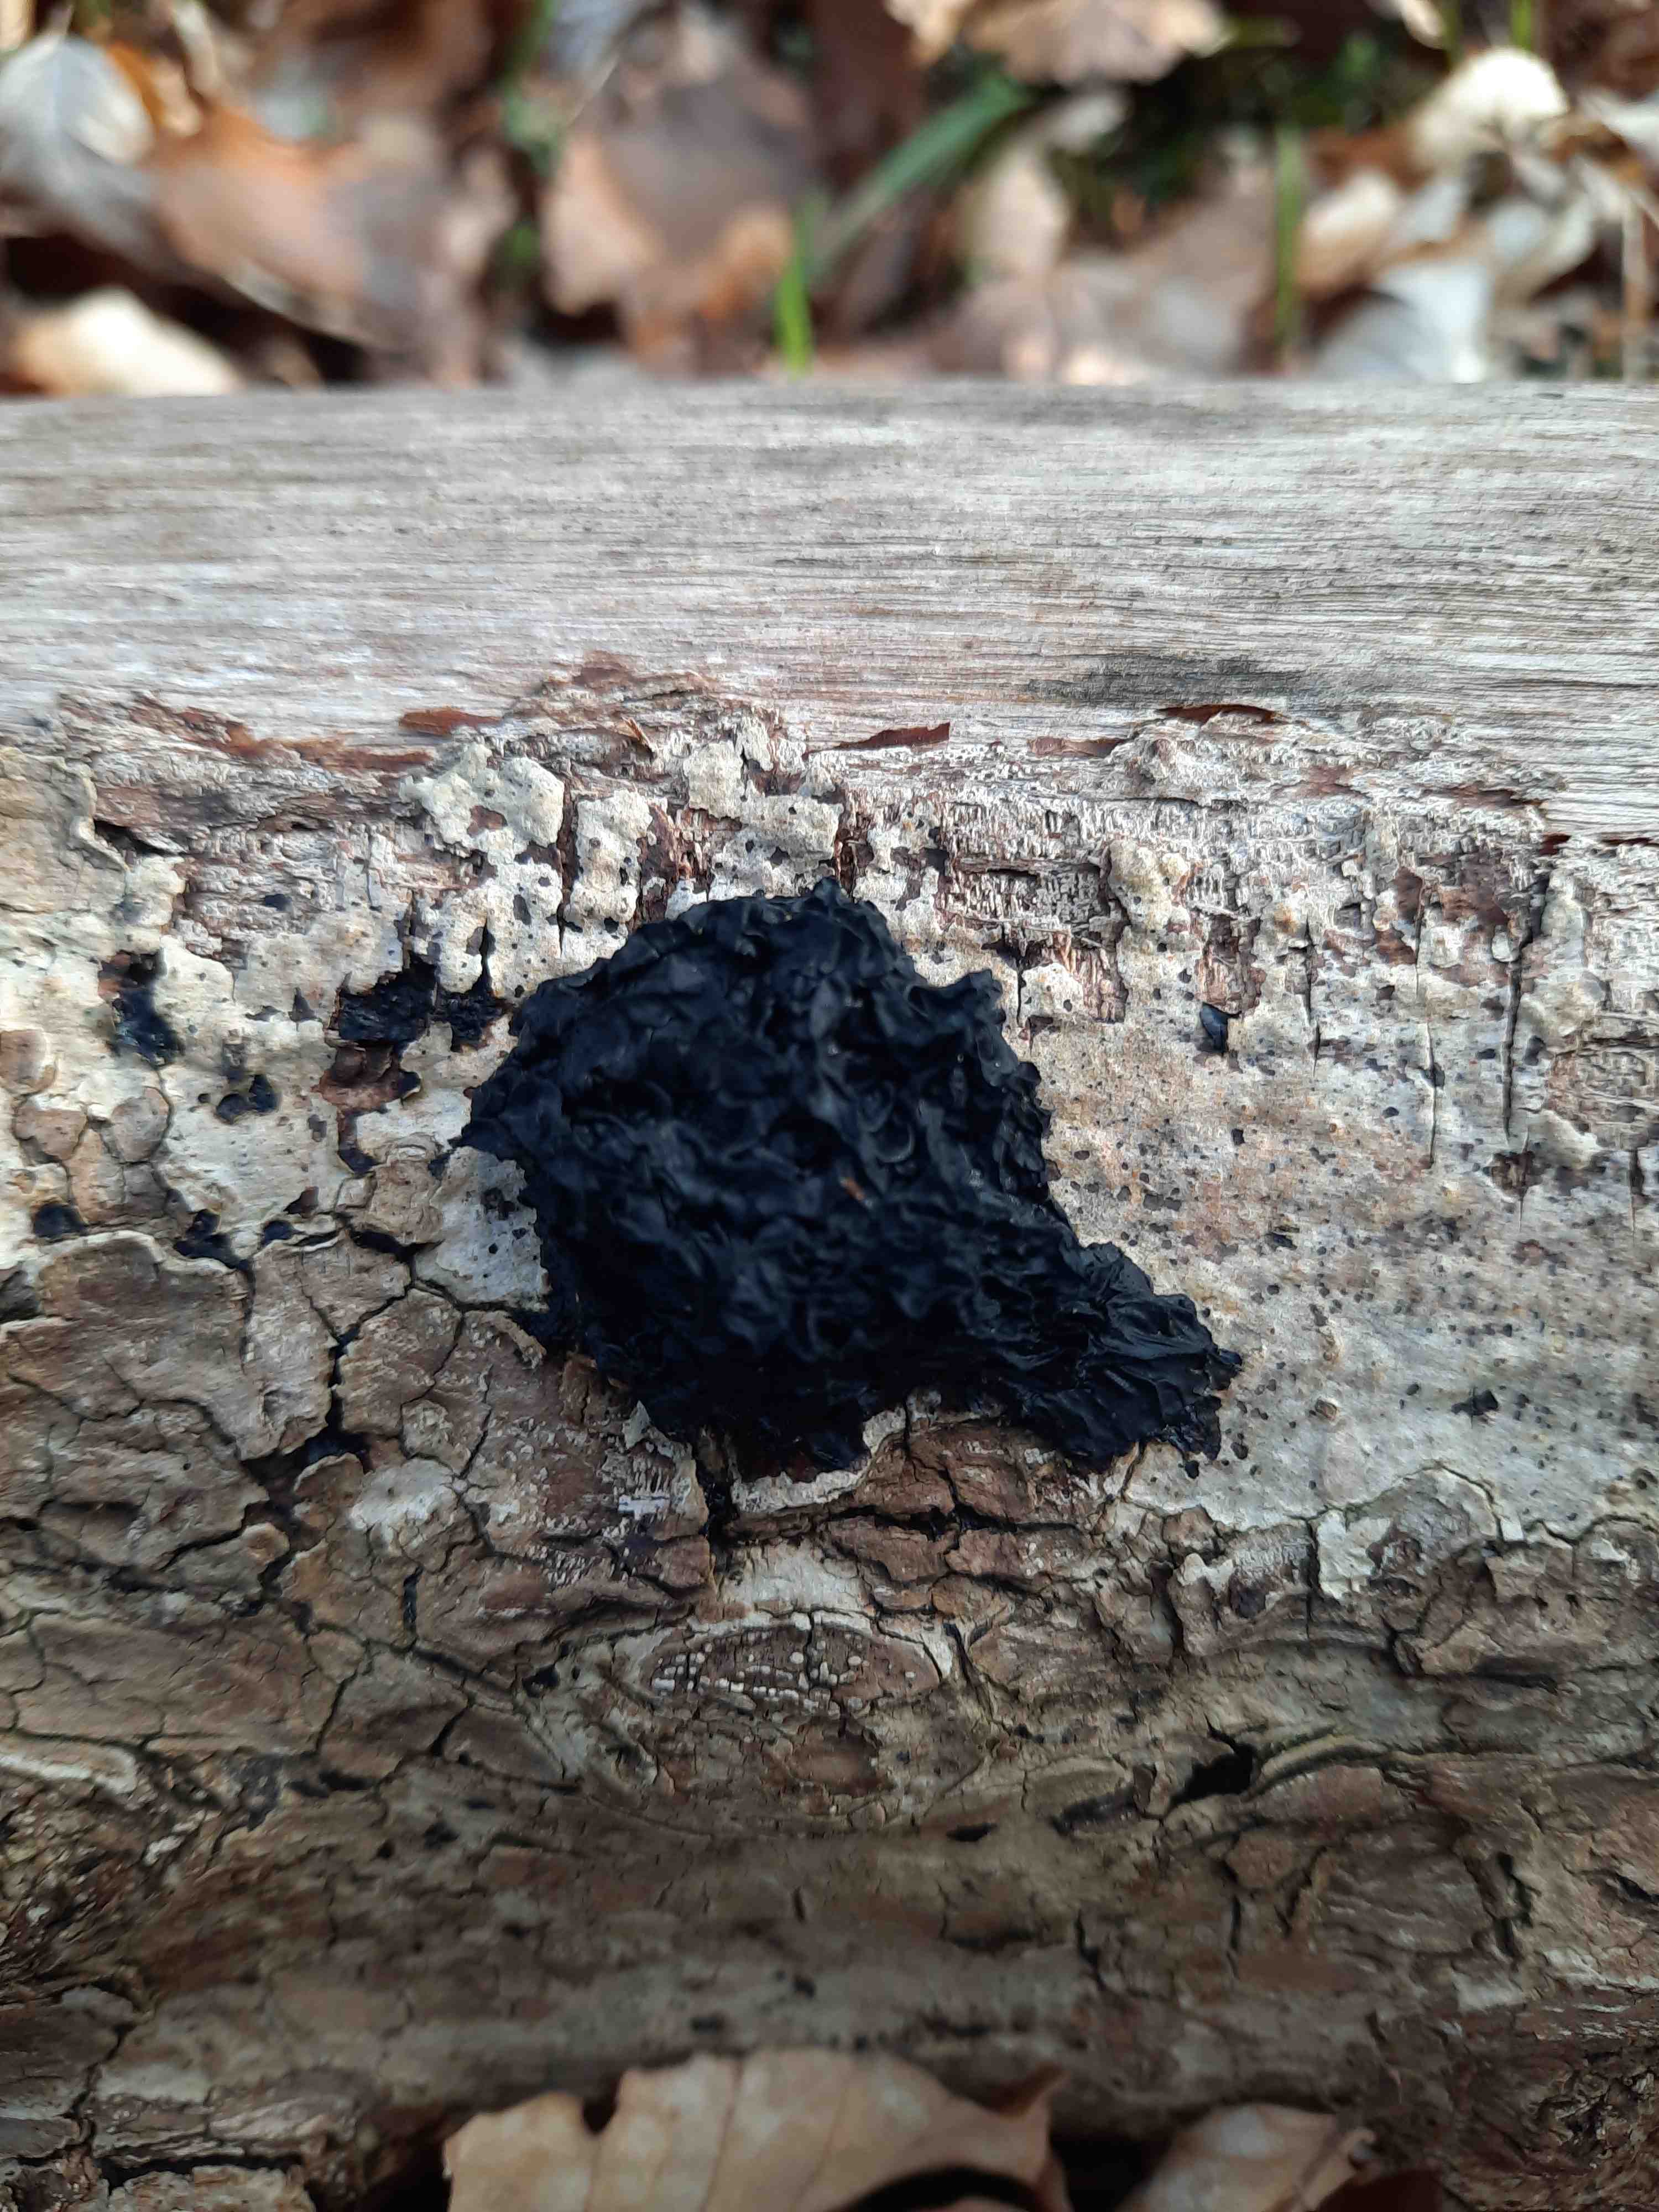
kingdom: Fungi
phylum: Basidiomycota
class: Agaricomycetes
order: Auriculariales
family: Auriculariaceae
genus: Exidia
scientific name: Exidia nigricans
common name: almindelig bævretop
